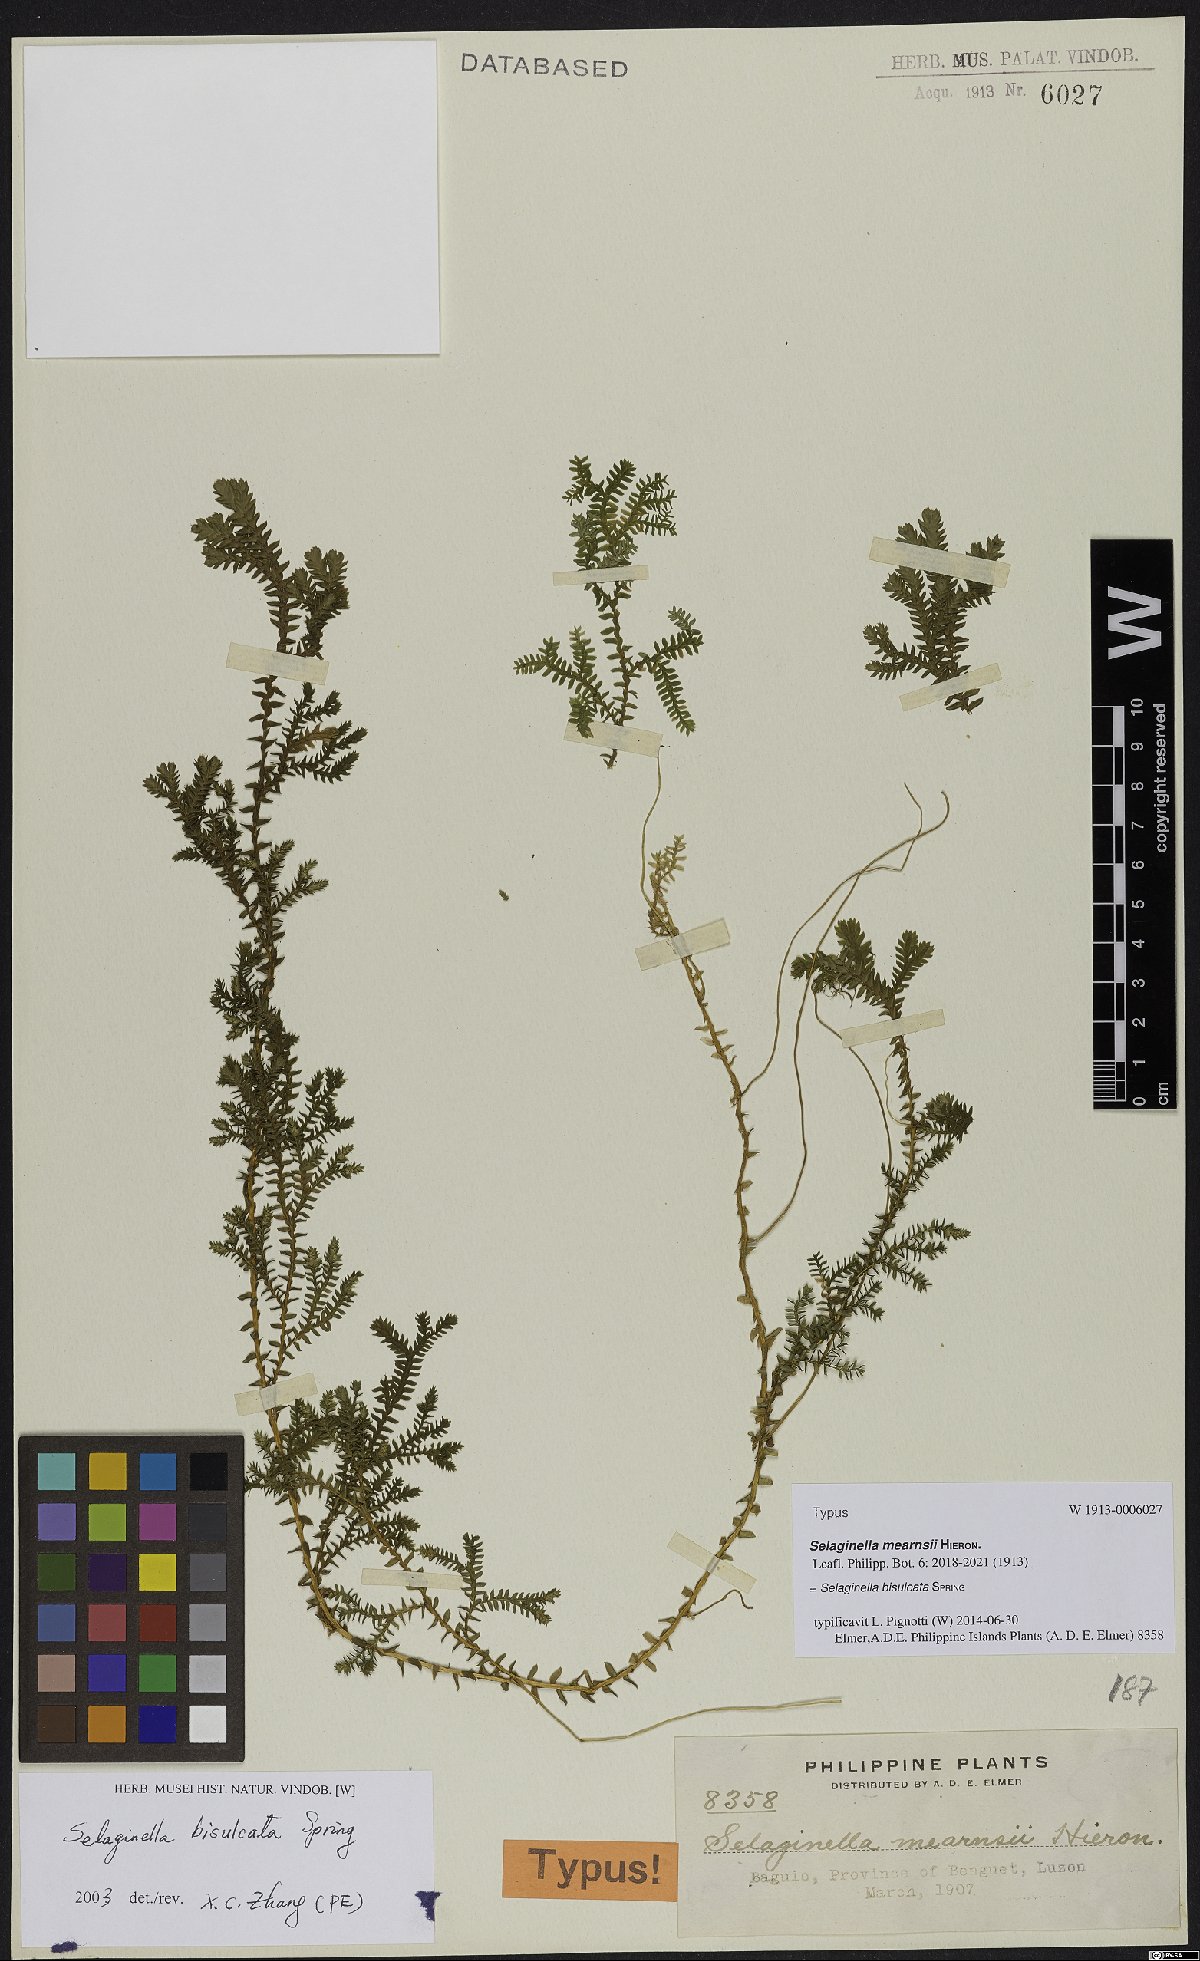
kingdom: Plantae
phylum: Tracheophyta
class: Lycopodiopsida
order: Selaginellales
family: Selaginellaceae
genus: Selaginella
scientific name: Selaginella bisulcata
